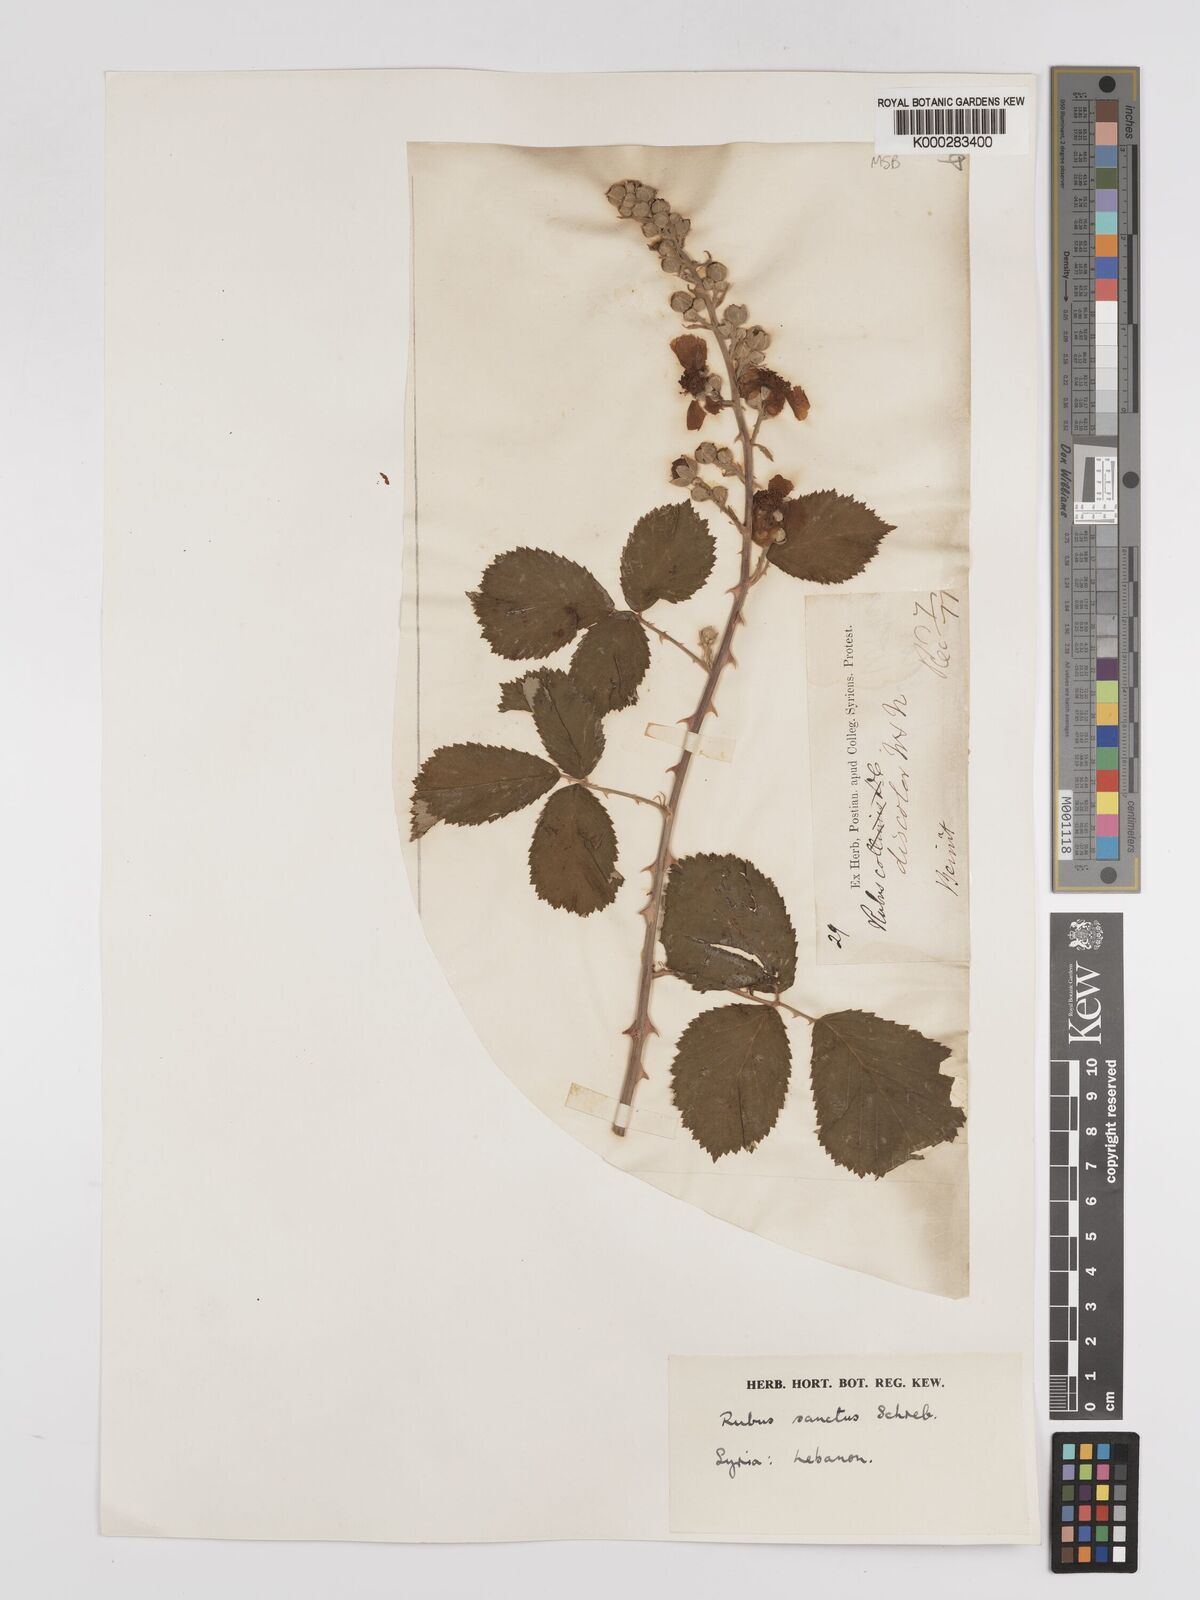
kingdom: Plantae
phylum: Tracheophyta
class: Magnoliopsida
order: Rosales
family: Rosaceae
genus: Rubus
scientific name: Rubus sanctus
